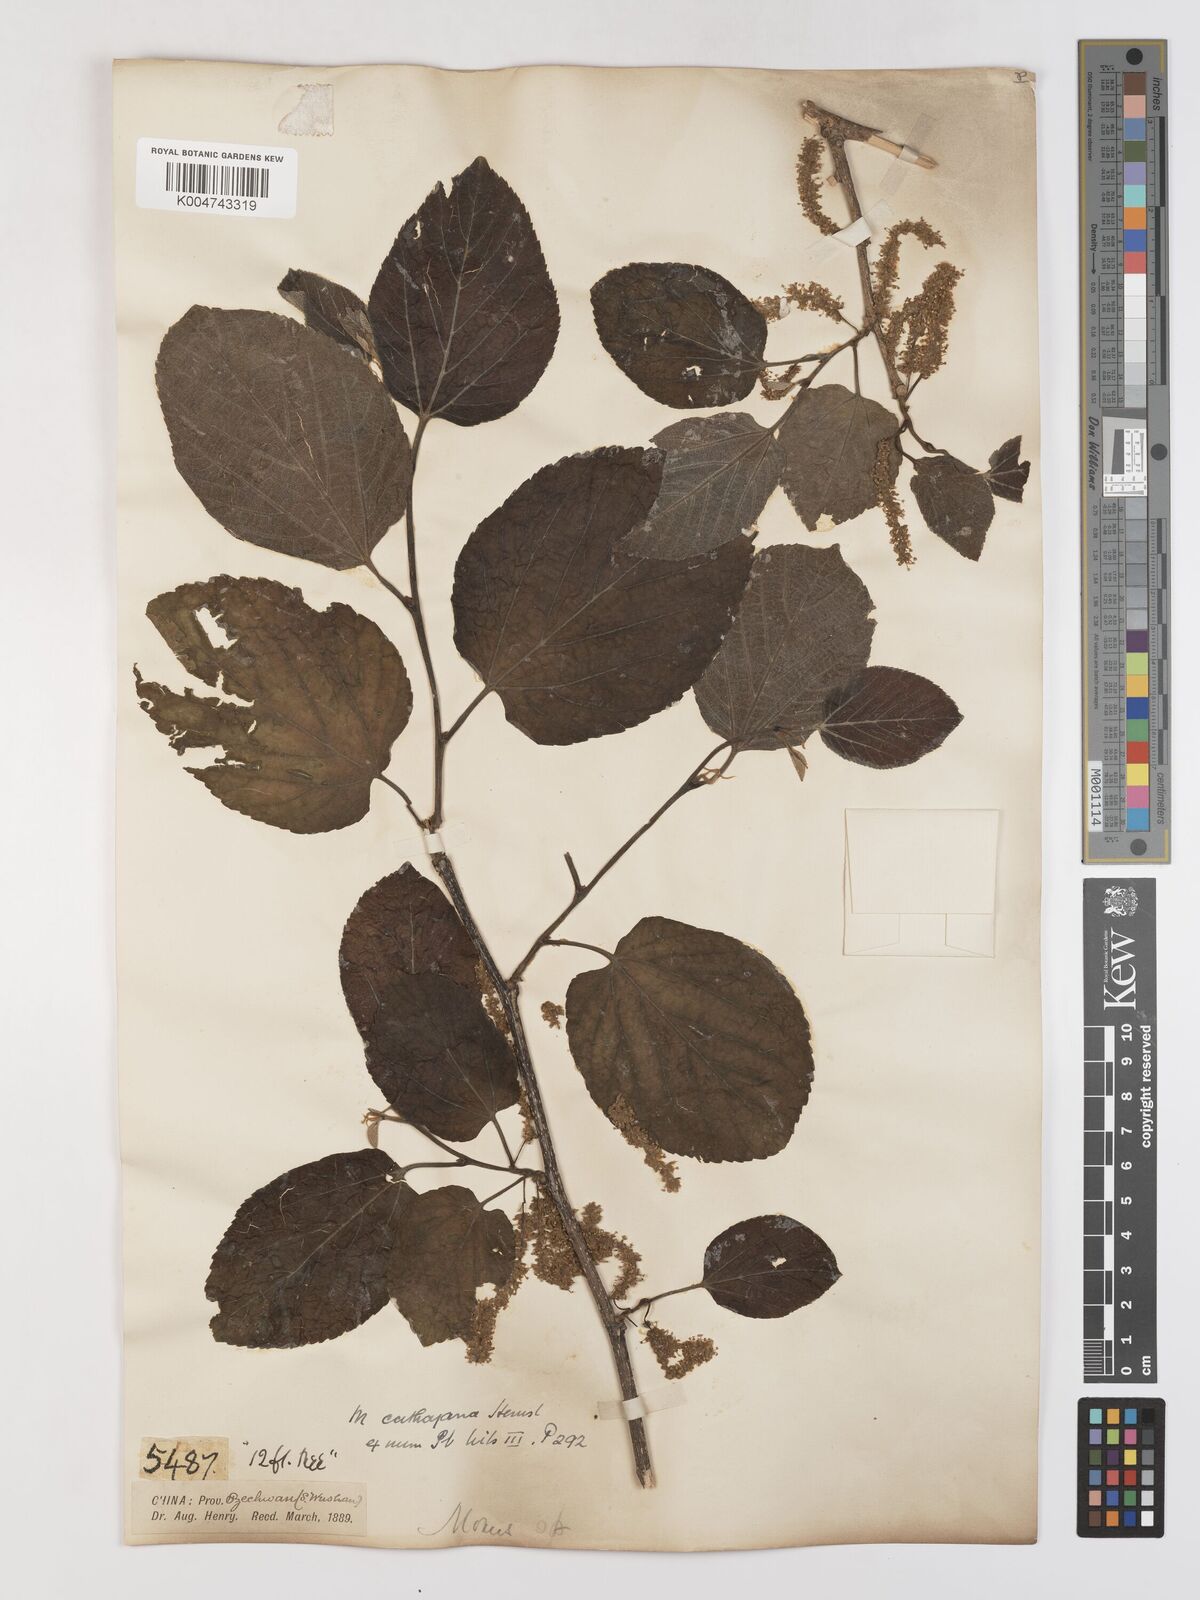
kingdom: Plantae
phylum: Tracheophyta
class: Magnoliopsida
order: Rosales
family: Moraceae
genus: Morus
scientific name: Morus cathayana
